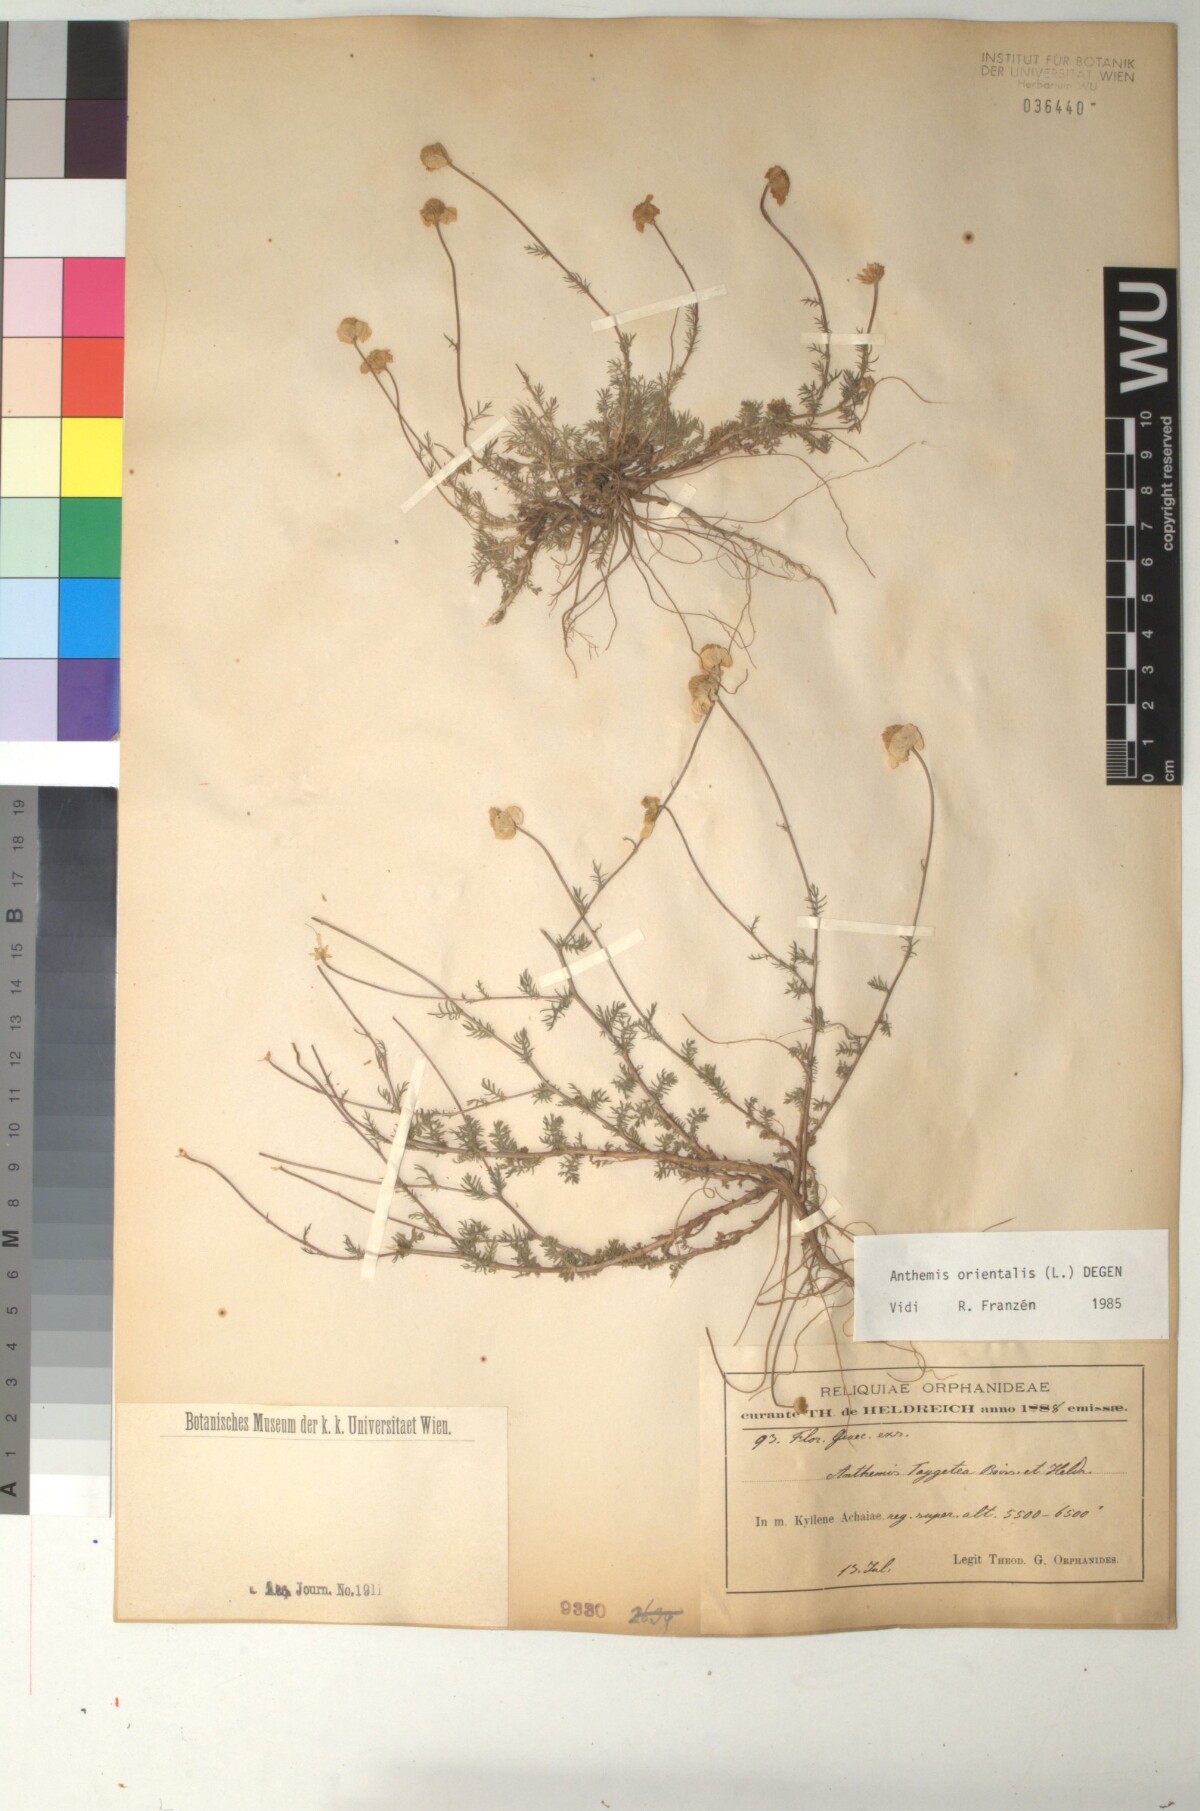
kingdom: Plantae
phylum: Tracheophyta
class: Magnoliopsida
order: Asterales
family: Asteraceae
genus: Anthemis
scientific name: Anthemis orientalis
